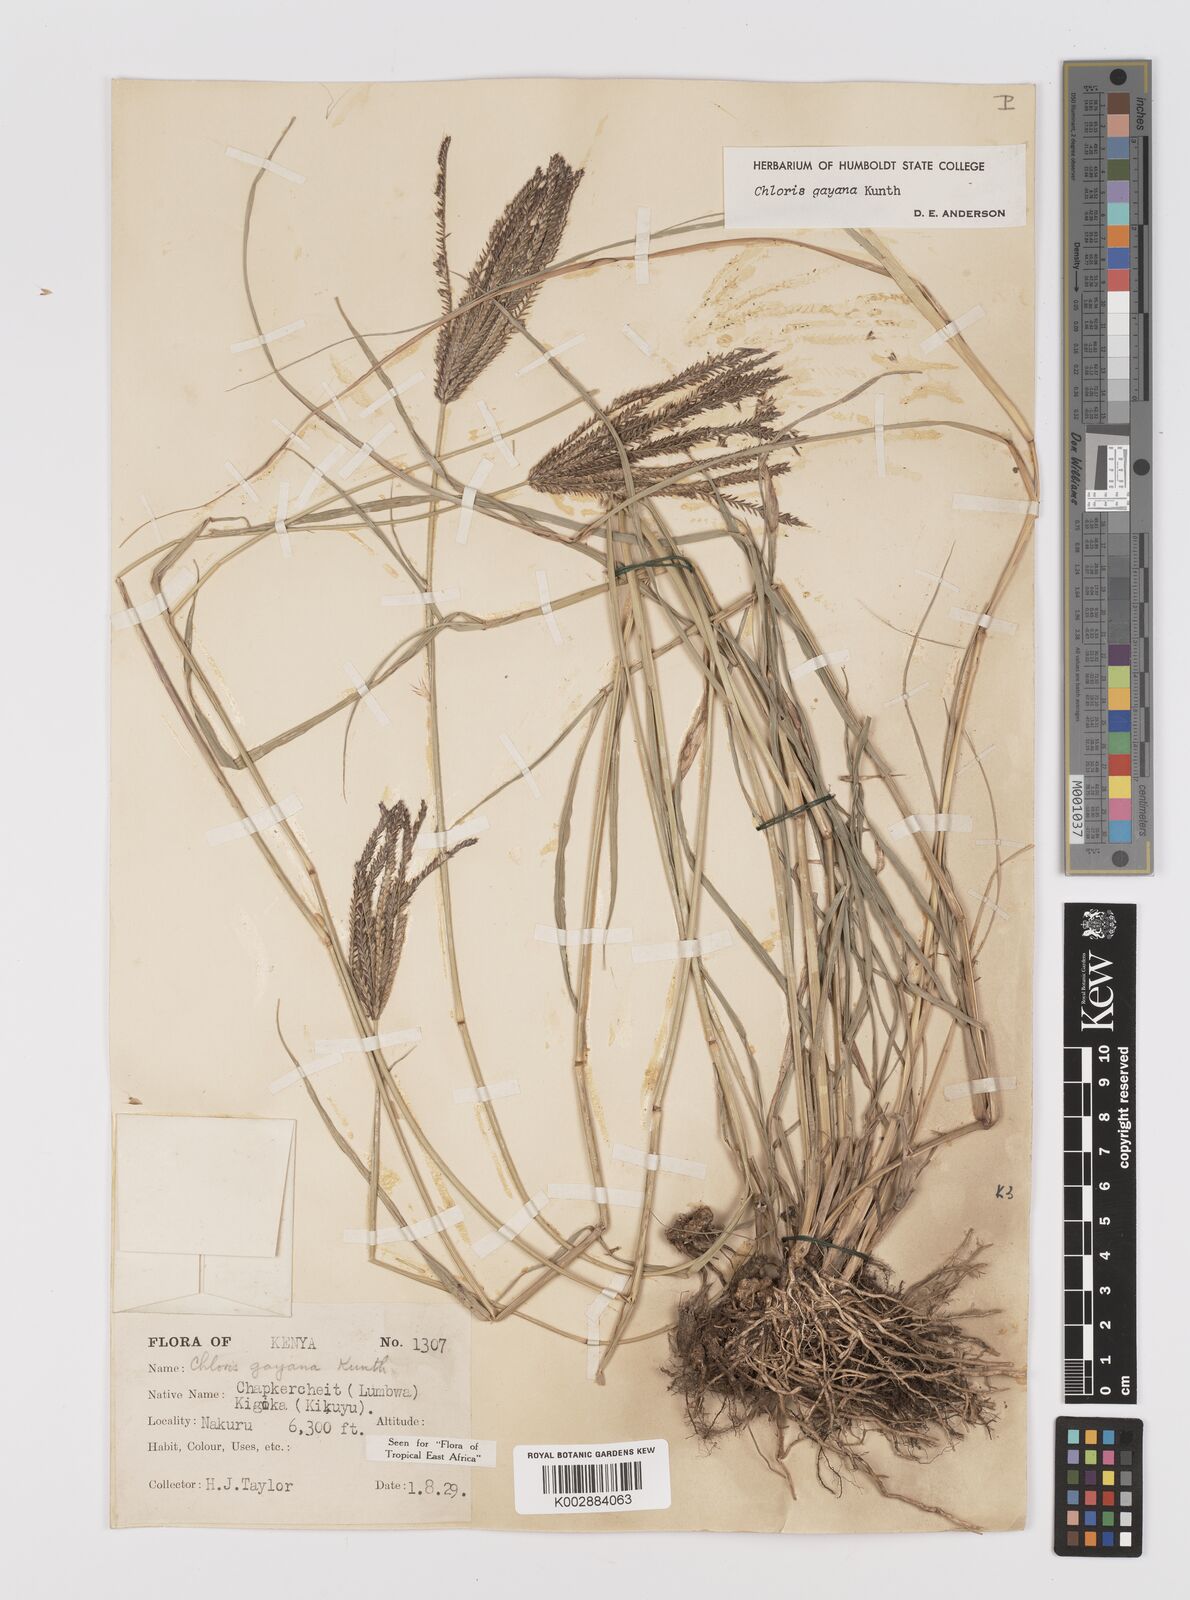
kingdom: Plantae
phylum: Tracheophyta
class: Liliopsida
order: Poales
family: Poaceae
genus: Chloris
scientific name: Chloris gayana
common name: Rhodes grass
